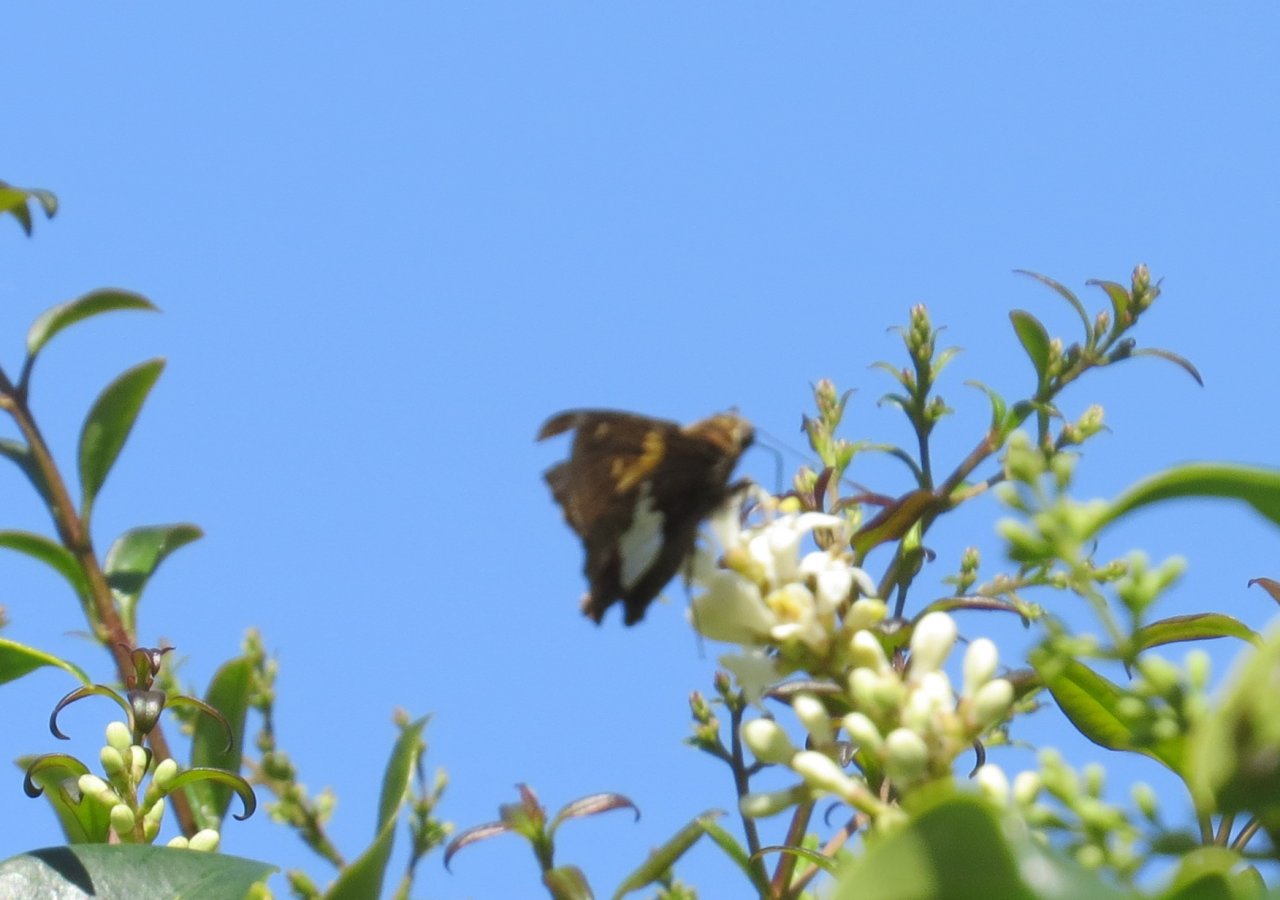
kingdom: Animalia
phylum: Arthropoda
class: Insecta
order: Lepidoptera
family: Hesperiidae
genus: Epargyreus
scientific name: Epargyreus clarus
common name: Silver-spotted Skipper
